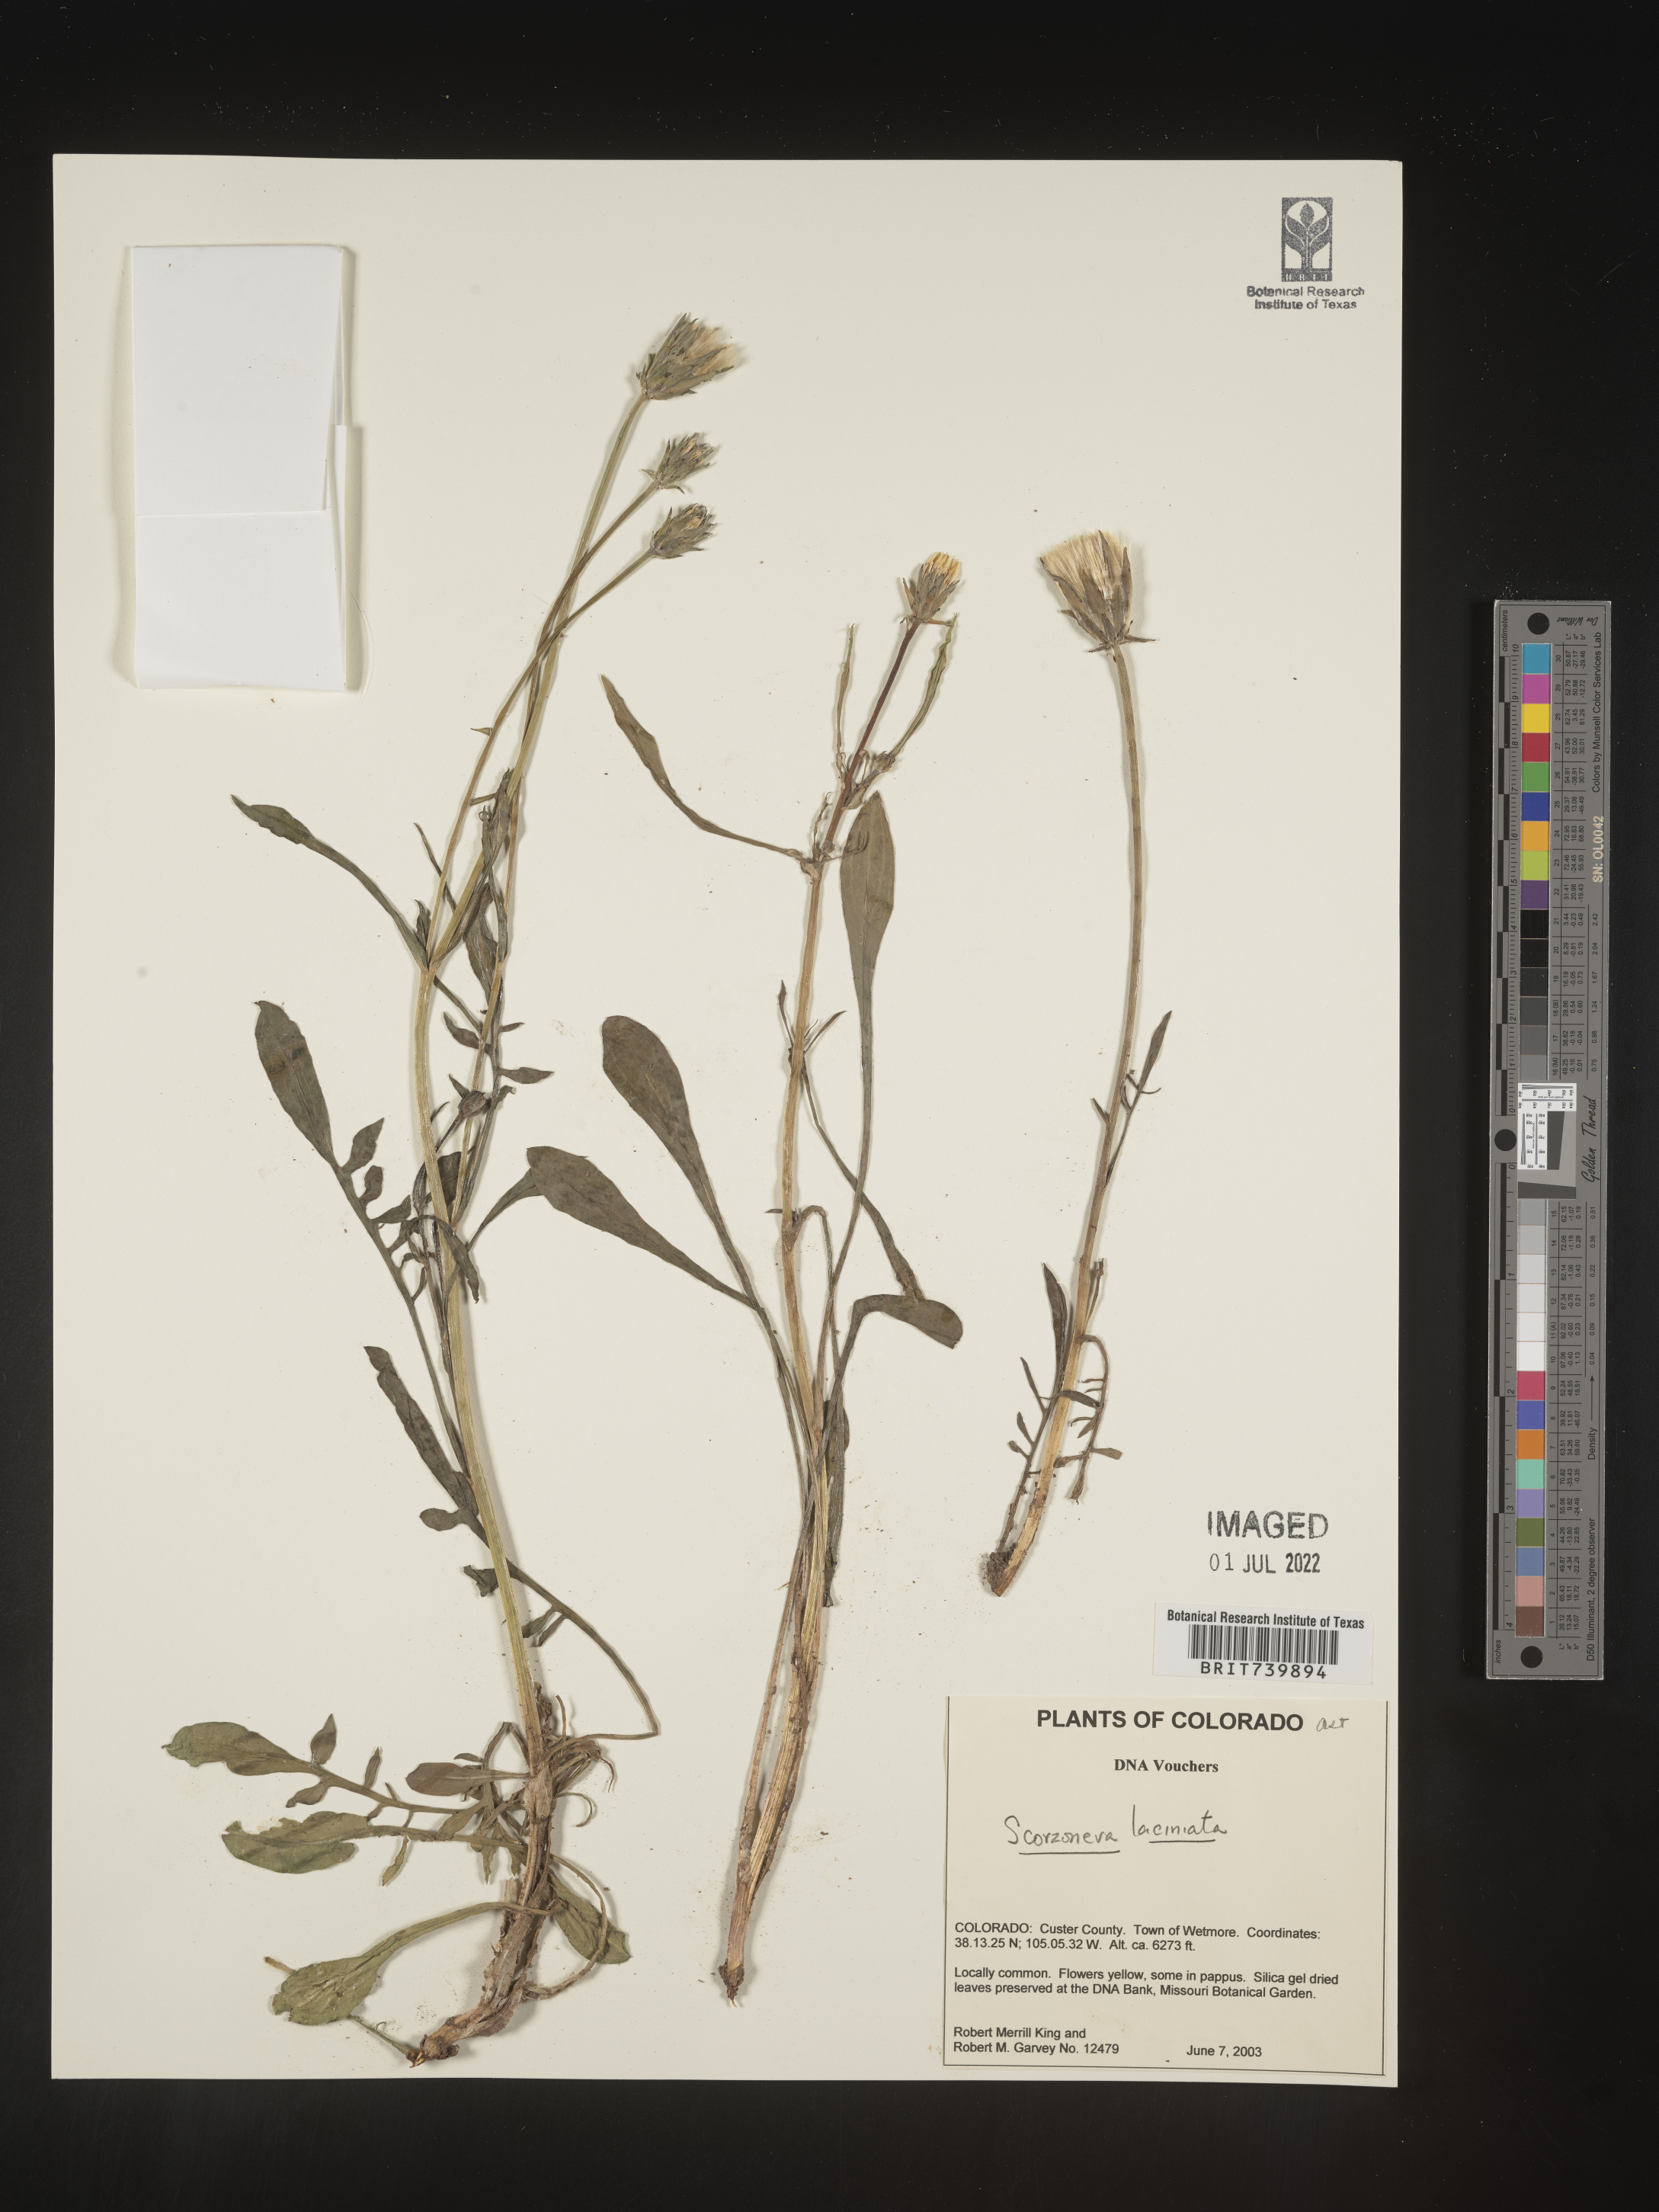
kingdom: Plantae
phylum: Tracheophyta
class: Magnoliopsida
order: Asterales
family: Asteraceae
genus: Scorzonera
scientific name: Scorzonera
